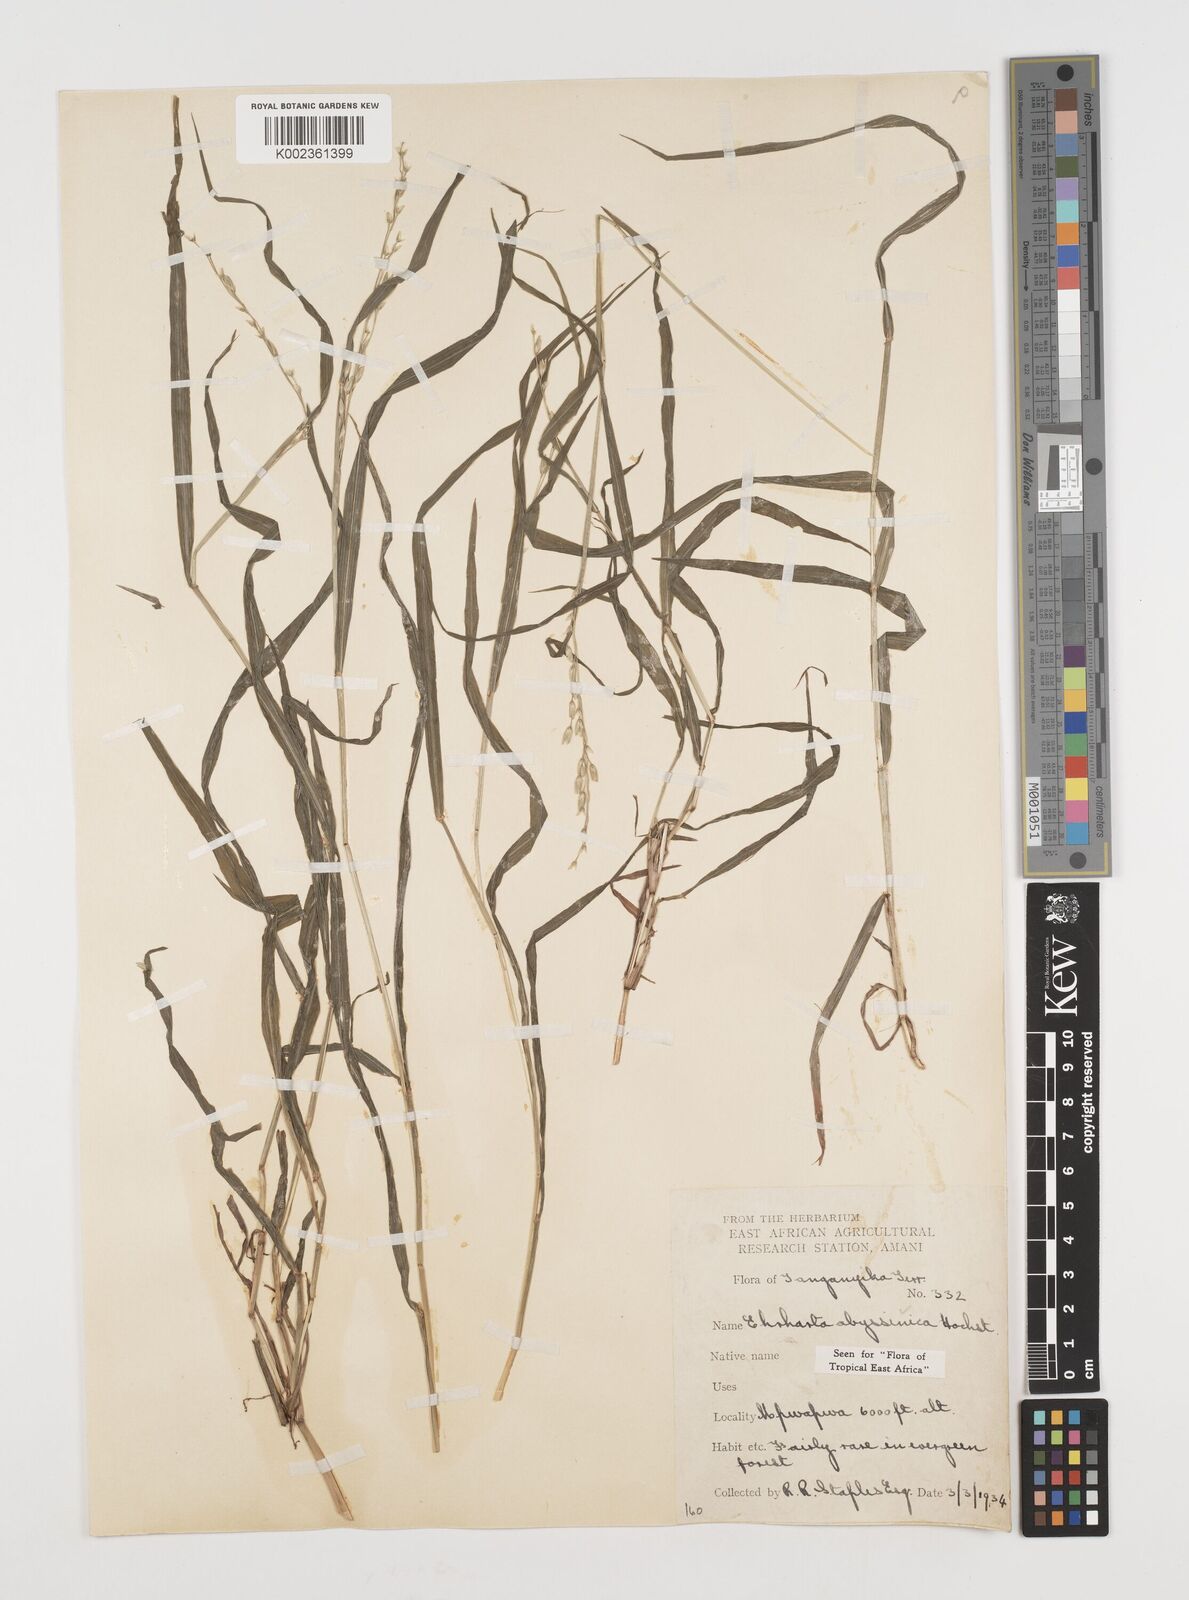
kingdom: Plantae
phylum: Tracheophyta
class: Liliopsida
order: Poales
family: Poaceae
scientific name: Poaceae
